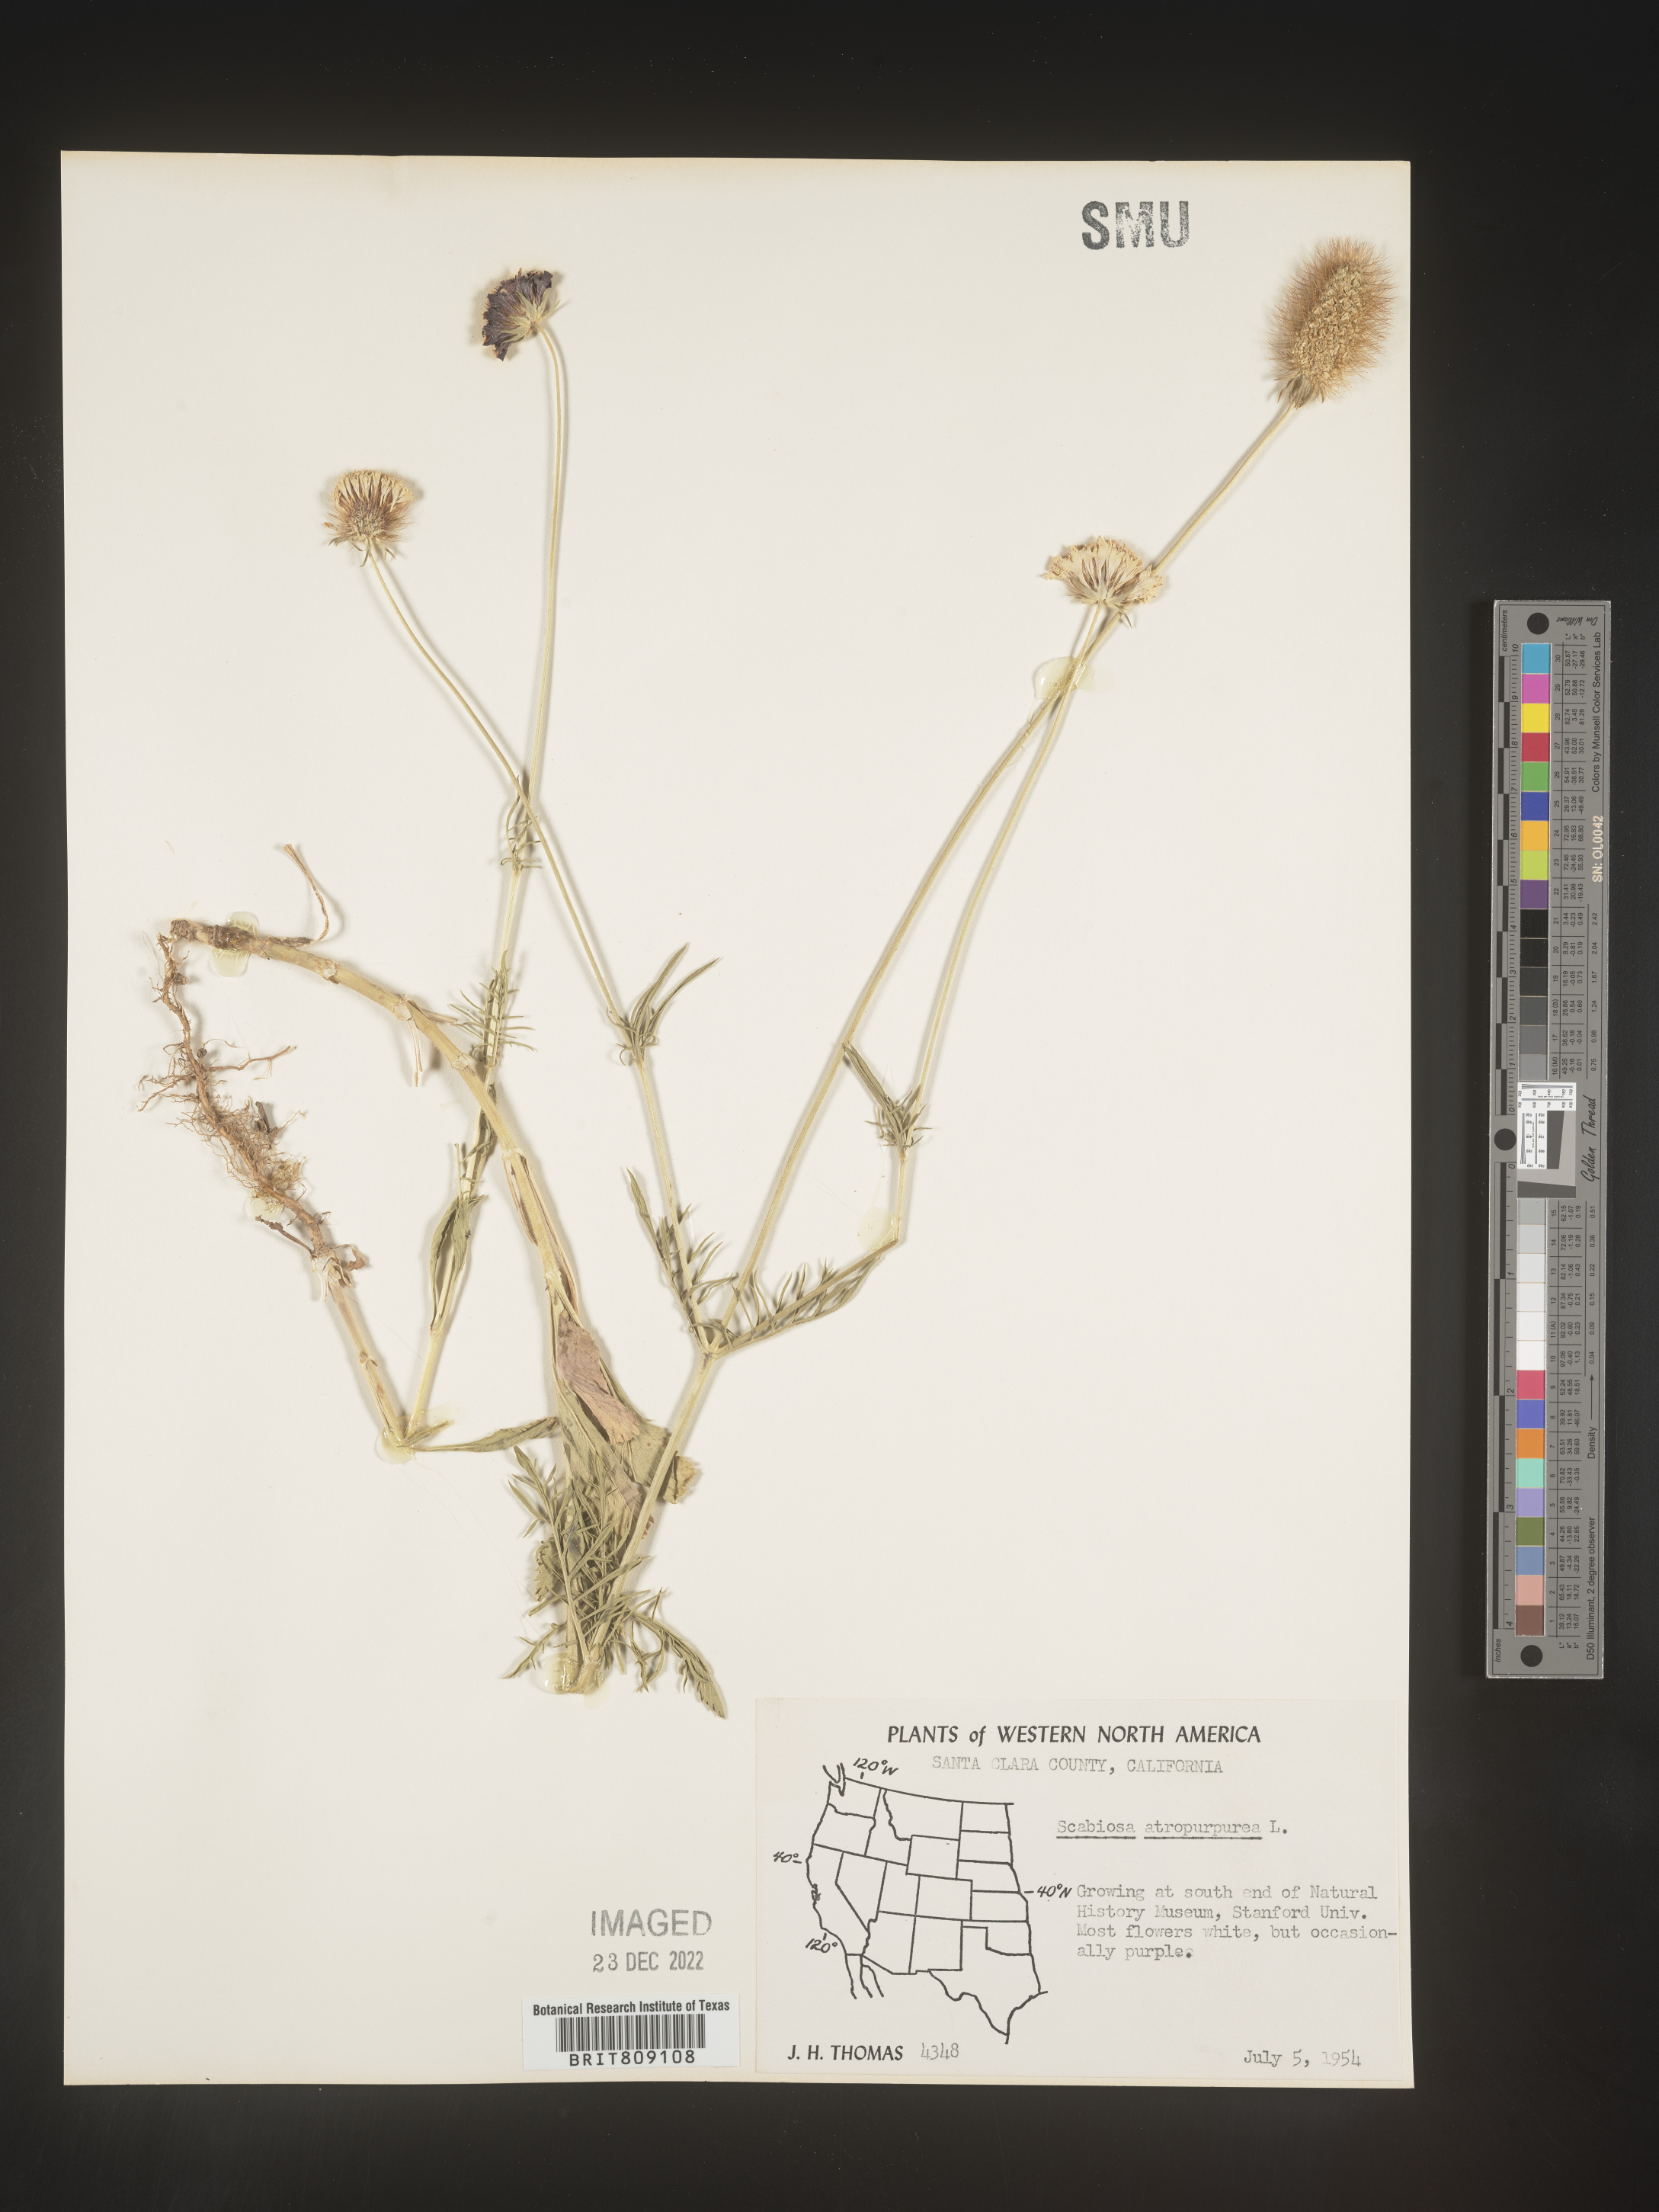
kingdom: Plantae
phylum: Tracheophyta
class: Magnoliopsida
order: Dipsacales
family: Caprifoliaceae
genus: Scabiosa
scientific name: Scabiosa
